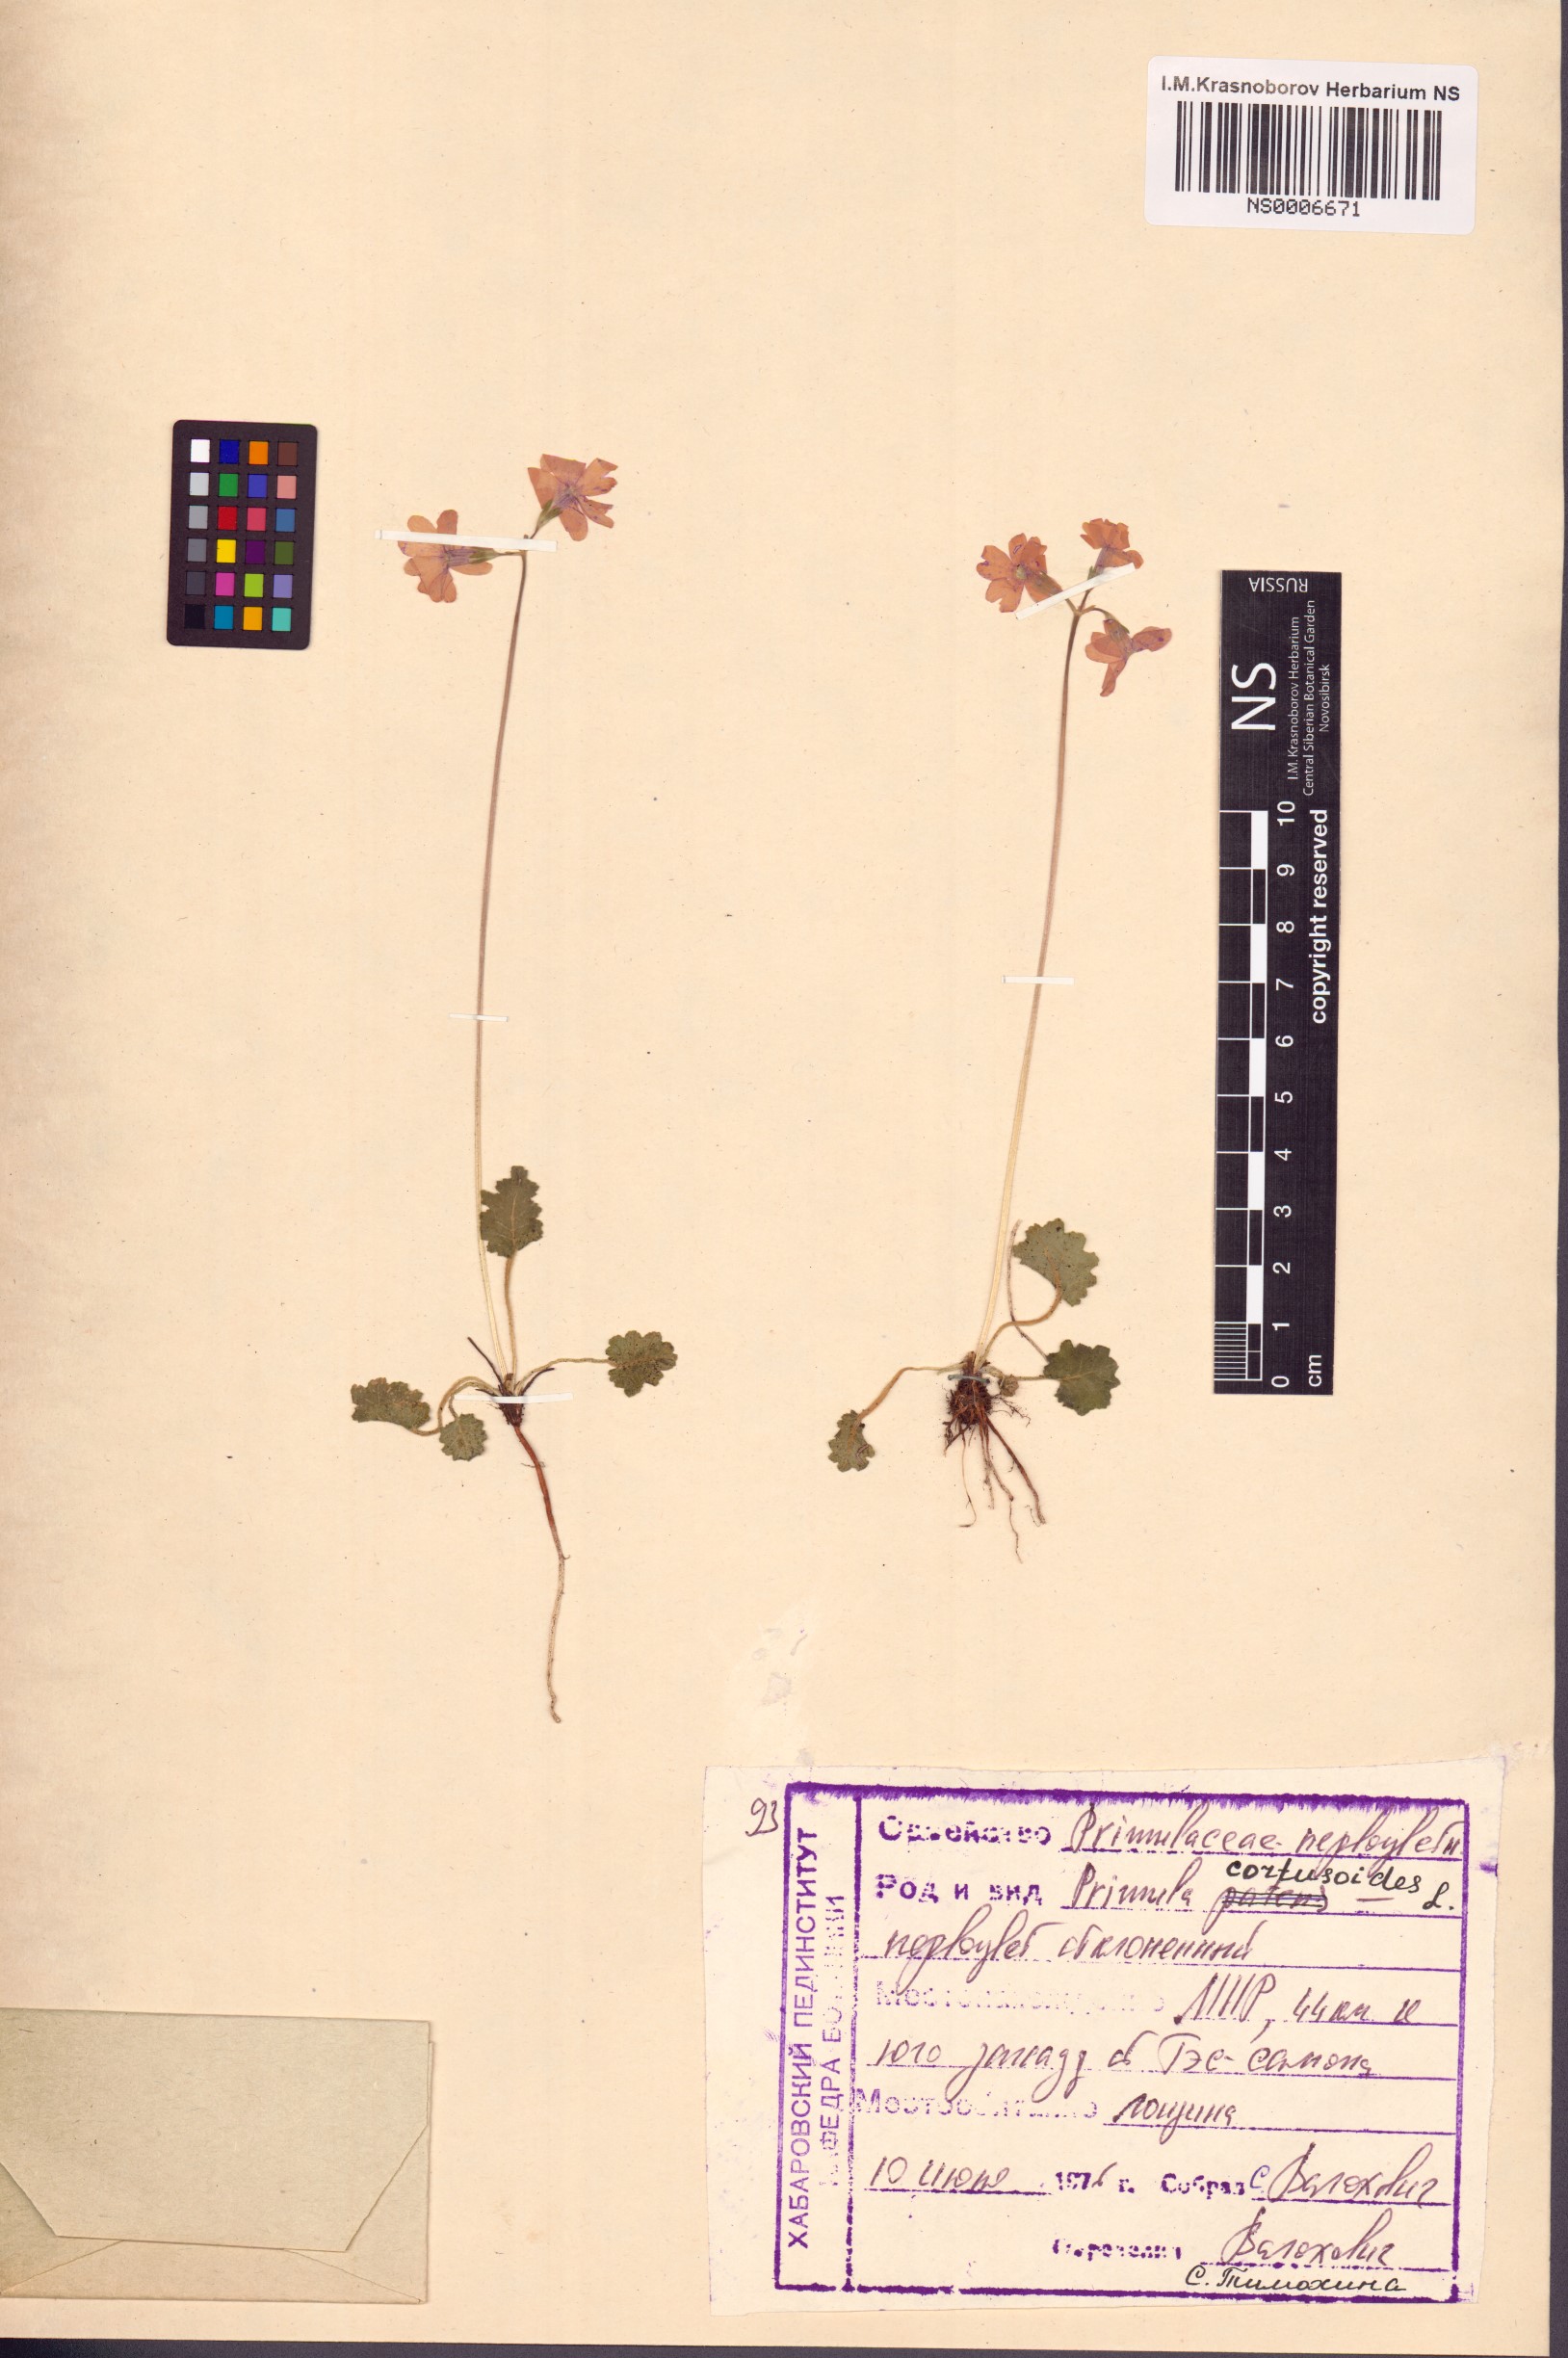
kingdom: Plantae
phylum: Tracheophyta
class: Magnoliopsida
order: Ericales
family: Primulaceae
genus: Primula
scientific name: Primula cortusoides
